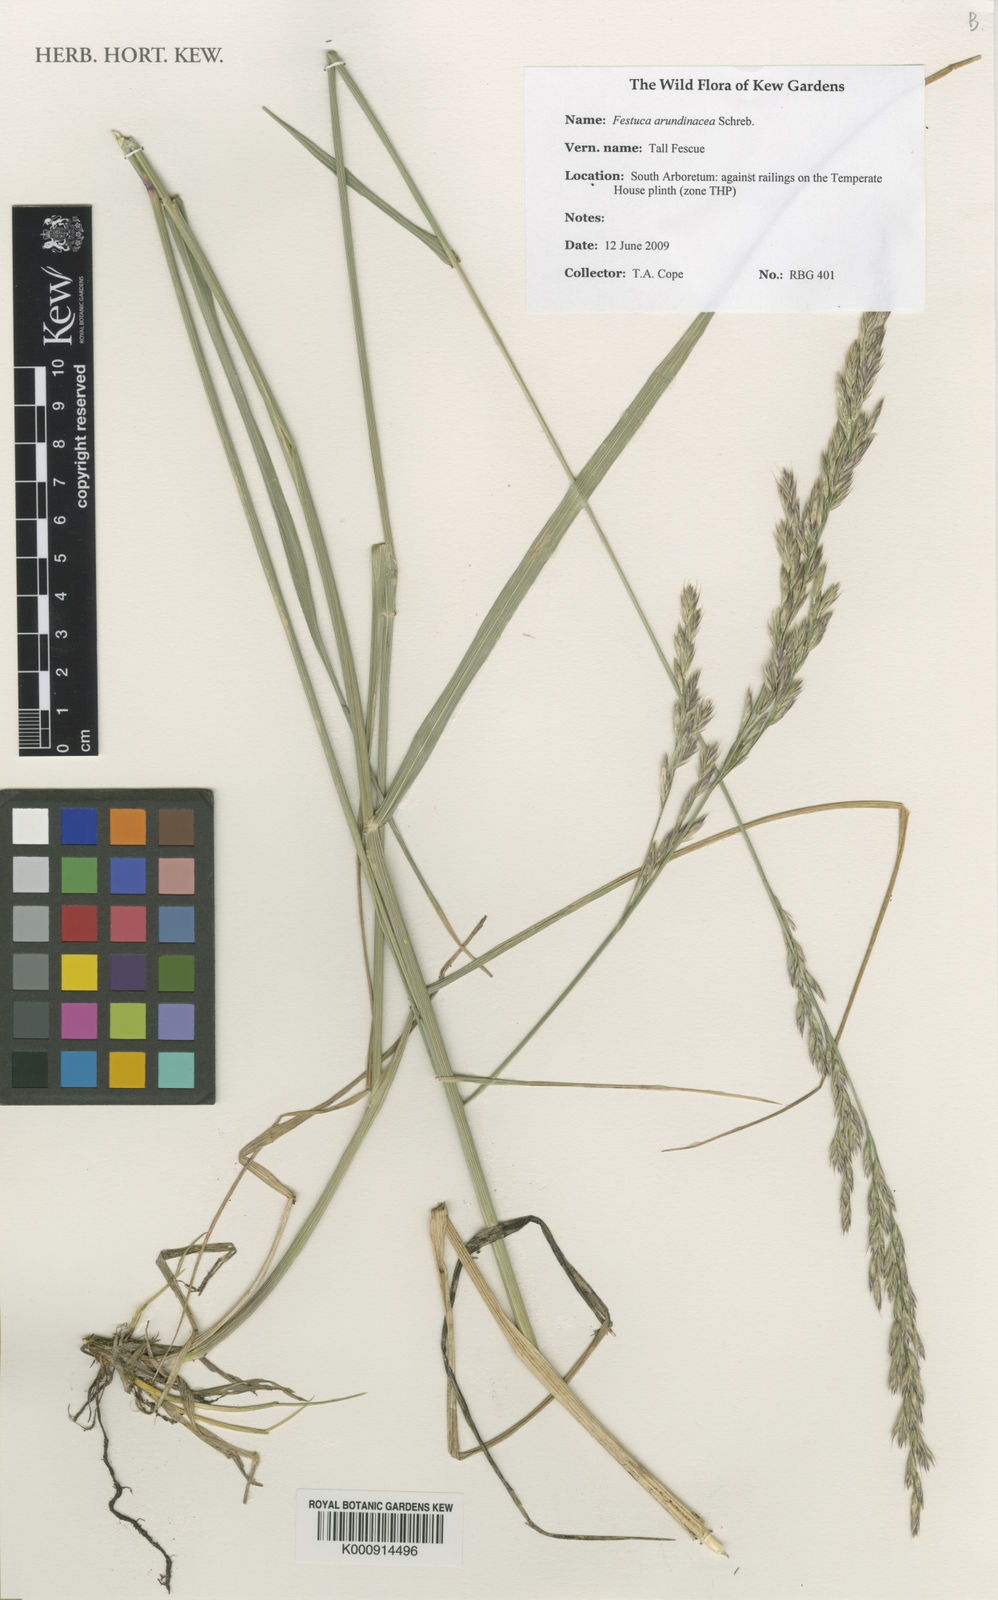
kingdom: Plantae
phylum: Tracheophyta
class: Liliopsida
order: Poales
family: Poaceae
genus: Lolium
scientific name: Lolium arundinaceum
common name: Reed fescue
